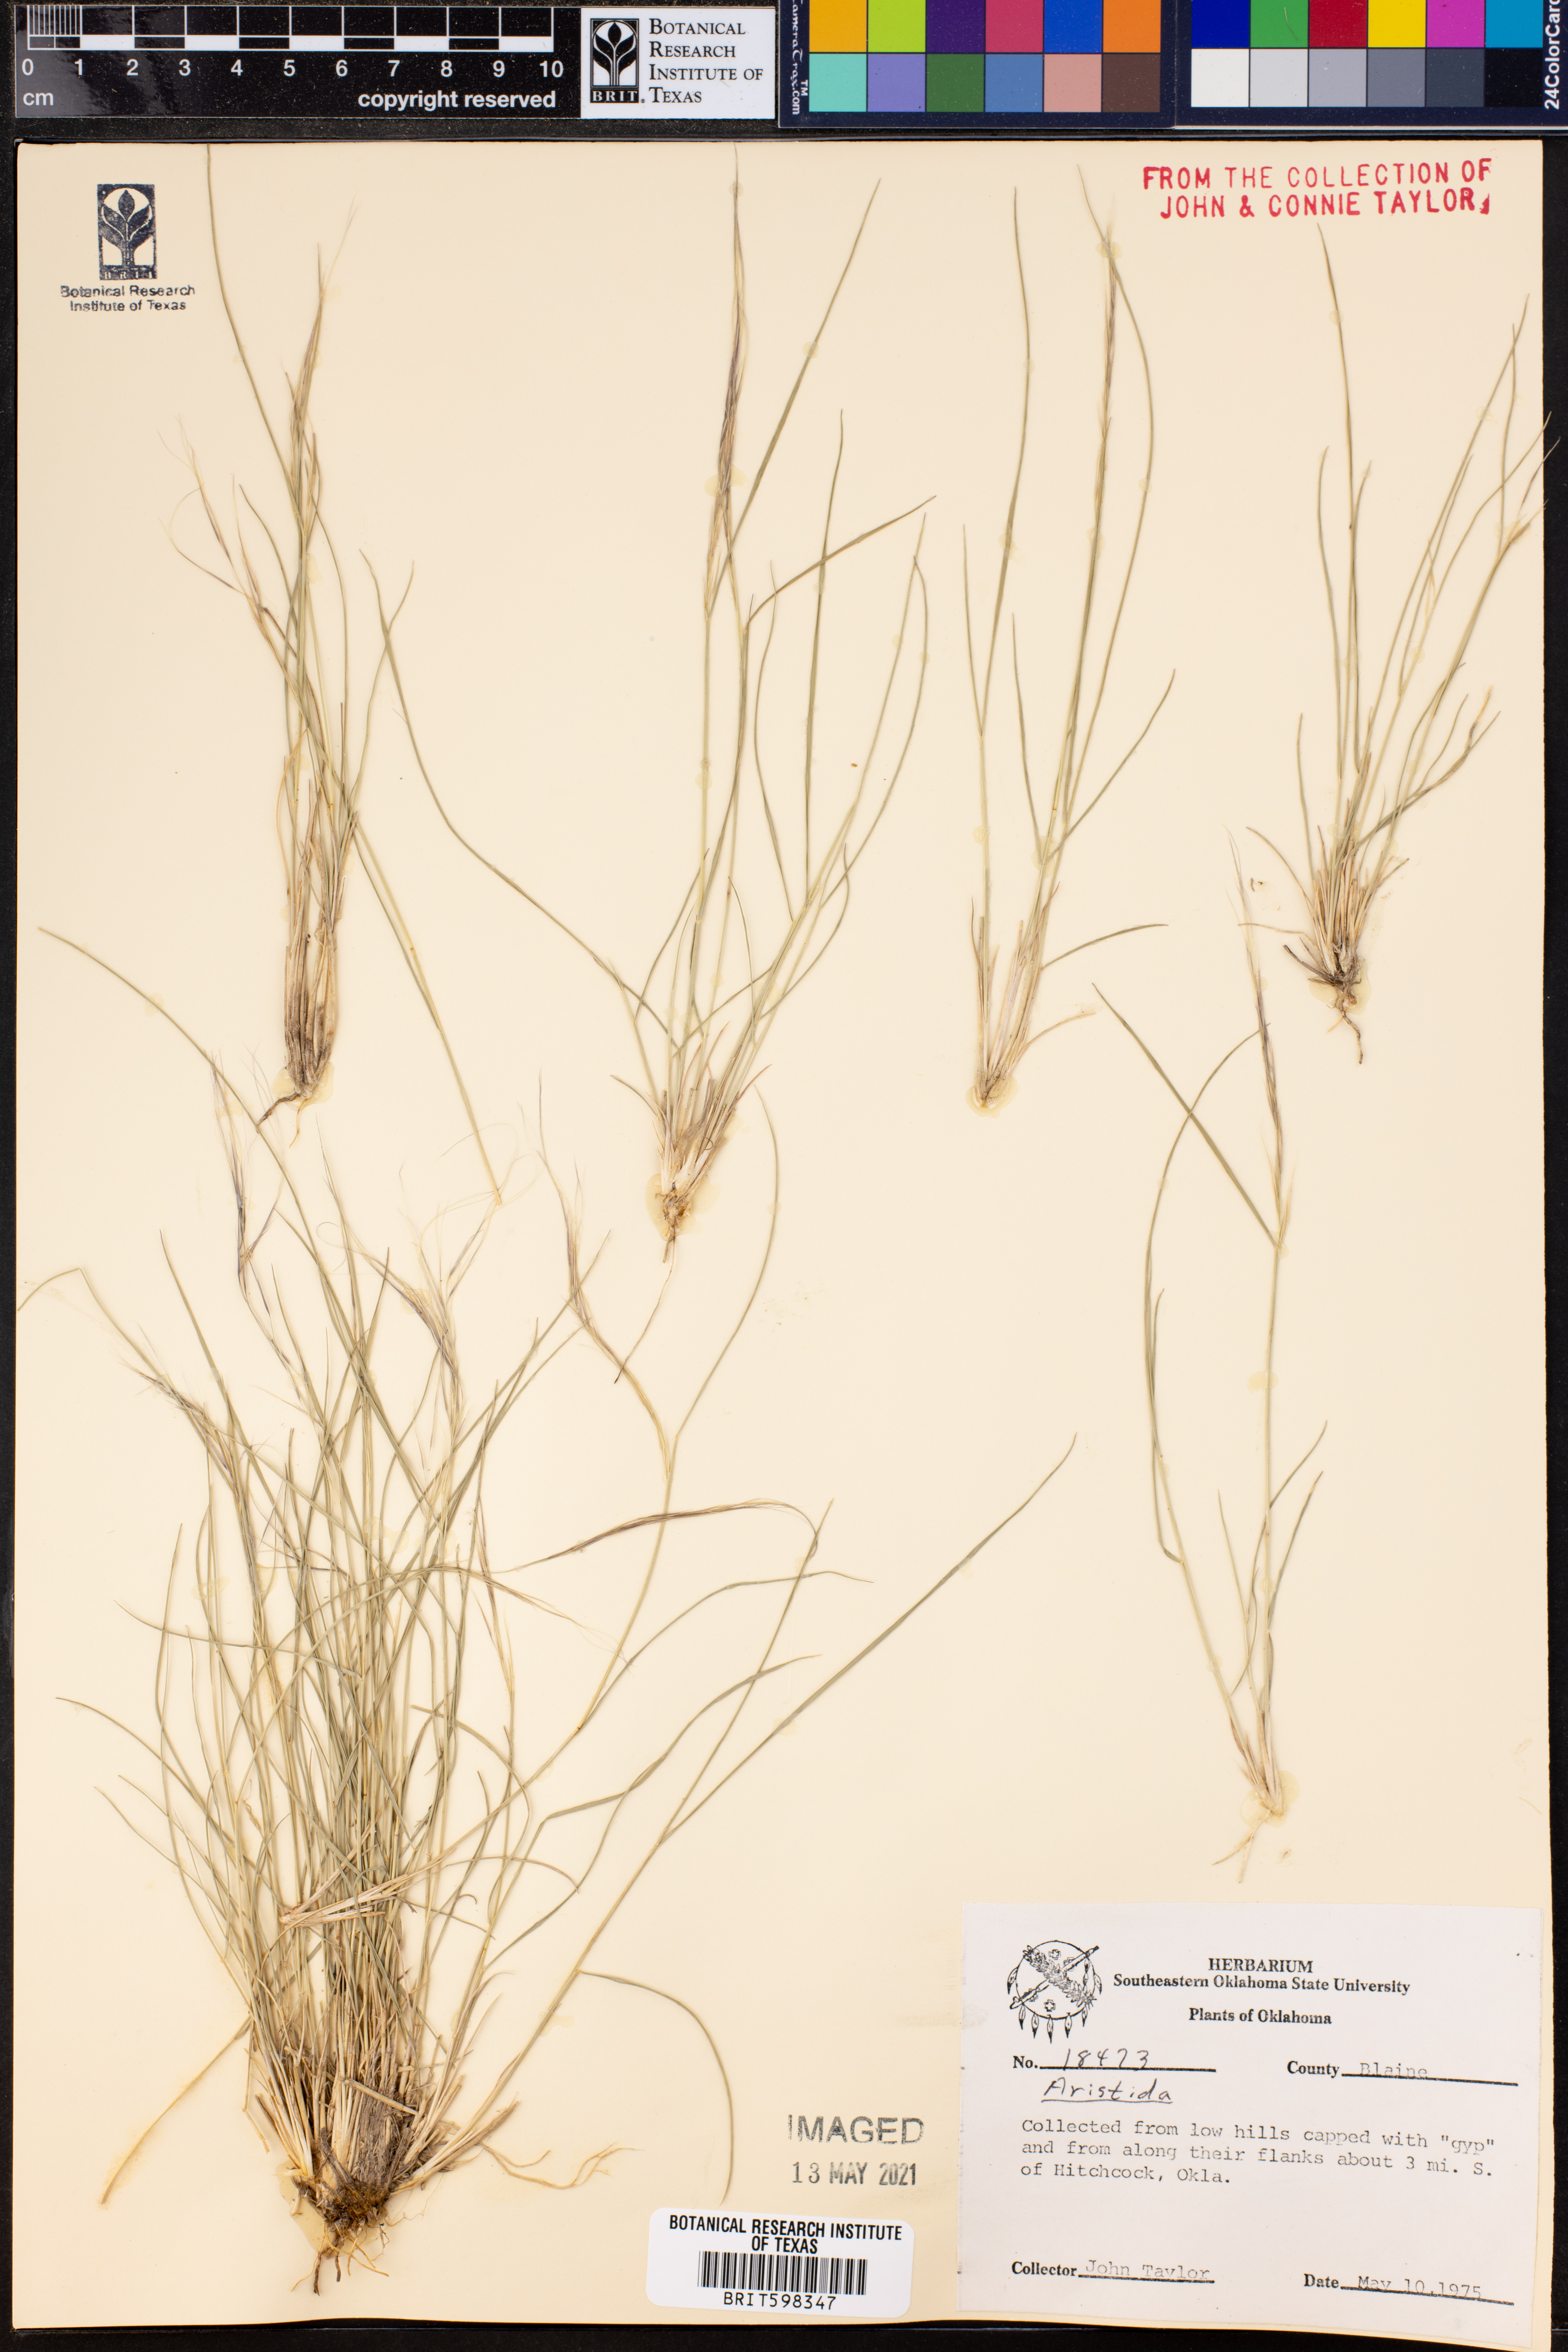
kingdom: Plantae
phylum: Tracheophyta
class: Liliopsida
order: Poales
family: Poaceae
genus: Aristida
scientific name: Aristida
